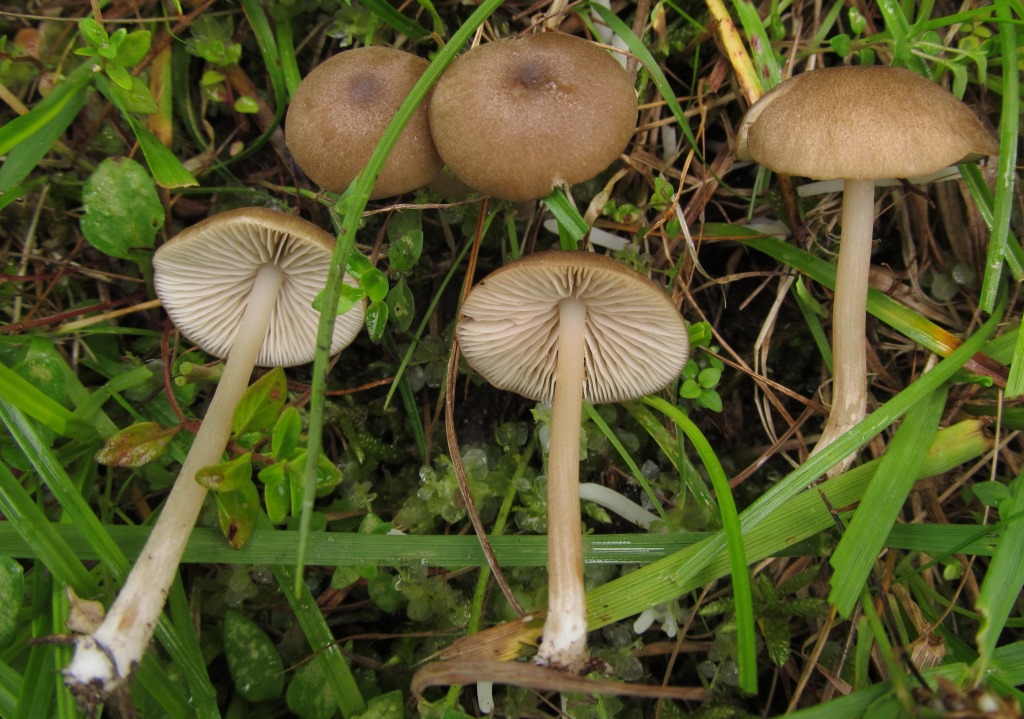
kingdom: Fungi
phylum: Basidiomycota
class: Agaricomycetes
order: Agaricales
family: Entolomataceae
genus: Entoloma
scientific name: Entoloma pseudoturci
